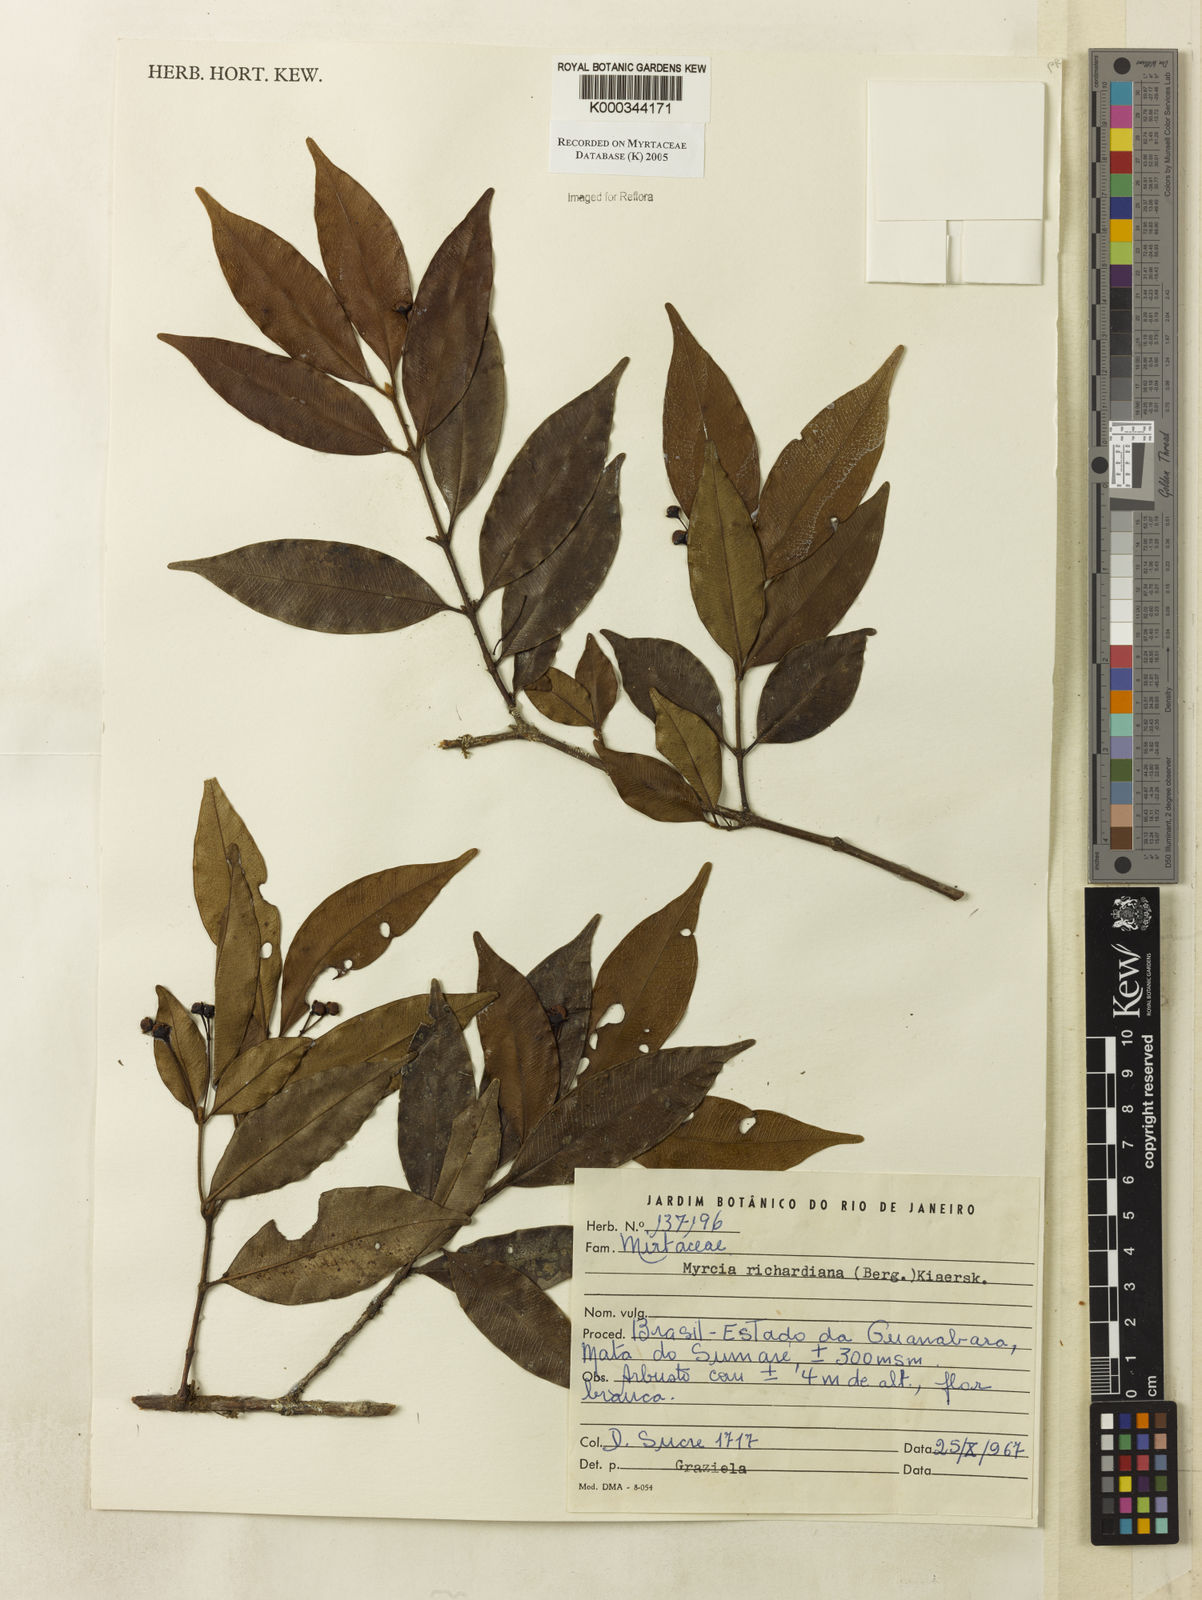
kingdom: Plantae
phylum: Tracheophyta
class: Magnoliopsida
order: Myrtales
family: Myrtaceae
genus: Myrcia
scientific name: Myrcia richardiana
